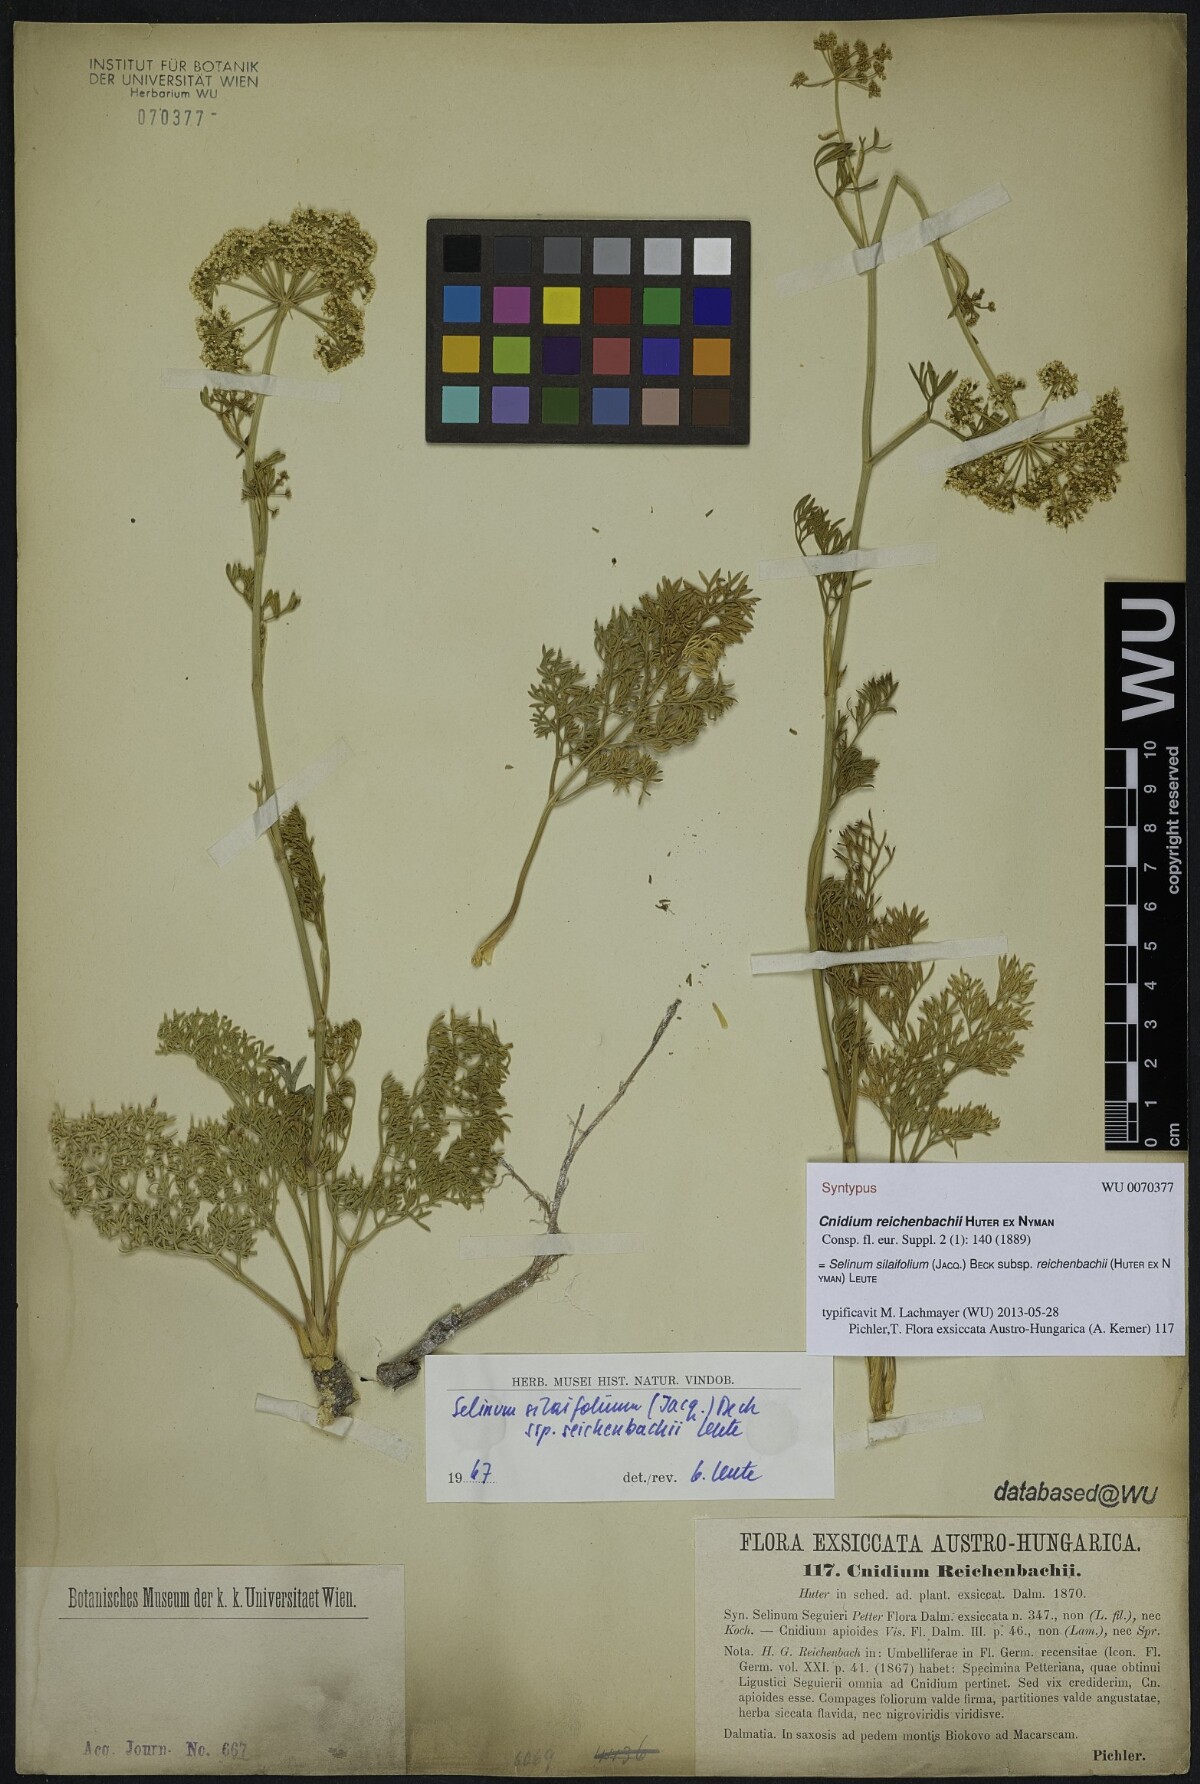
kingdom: Plantae
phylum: Tracheophyta
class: Magnoliopsida
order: Apiales
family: Apiaceae
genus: Cnidium
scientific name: Cnidium reichenbachii
